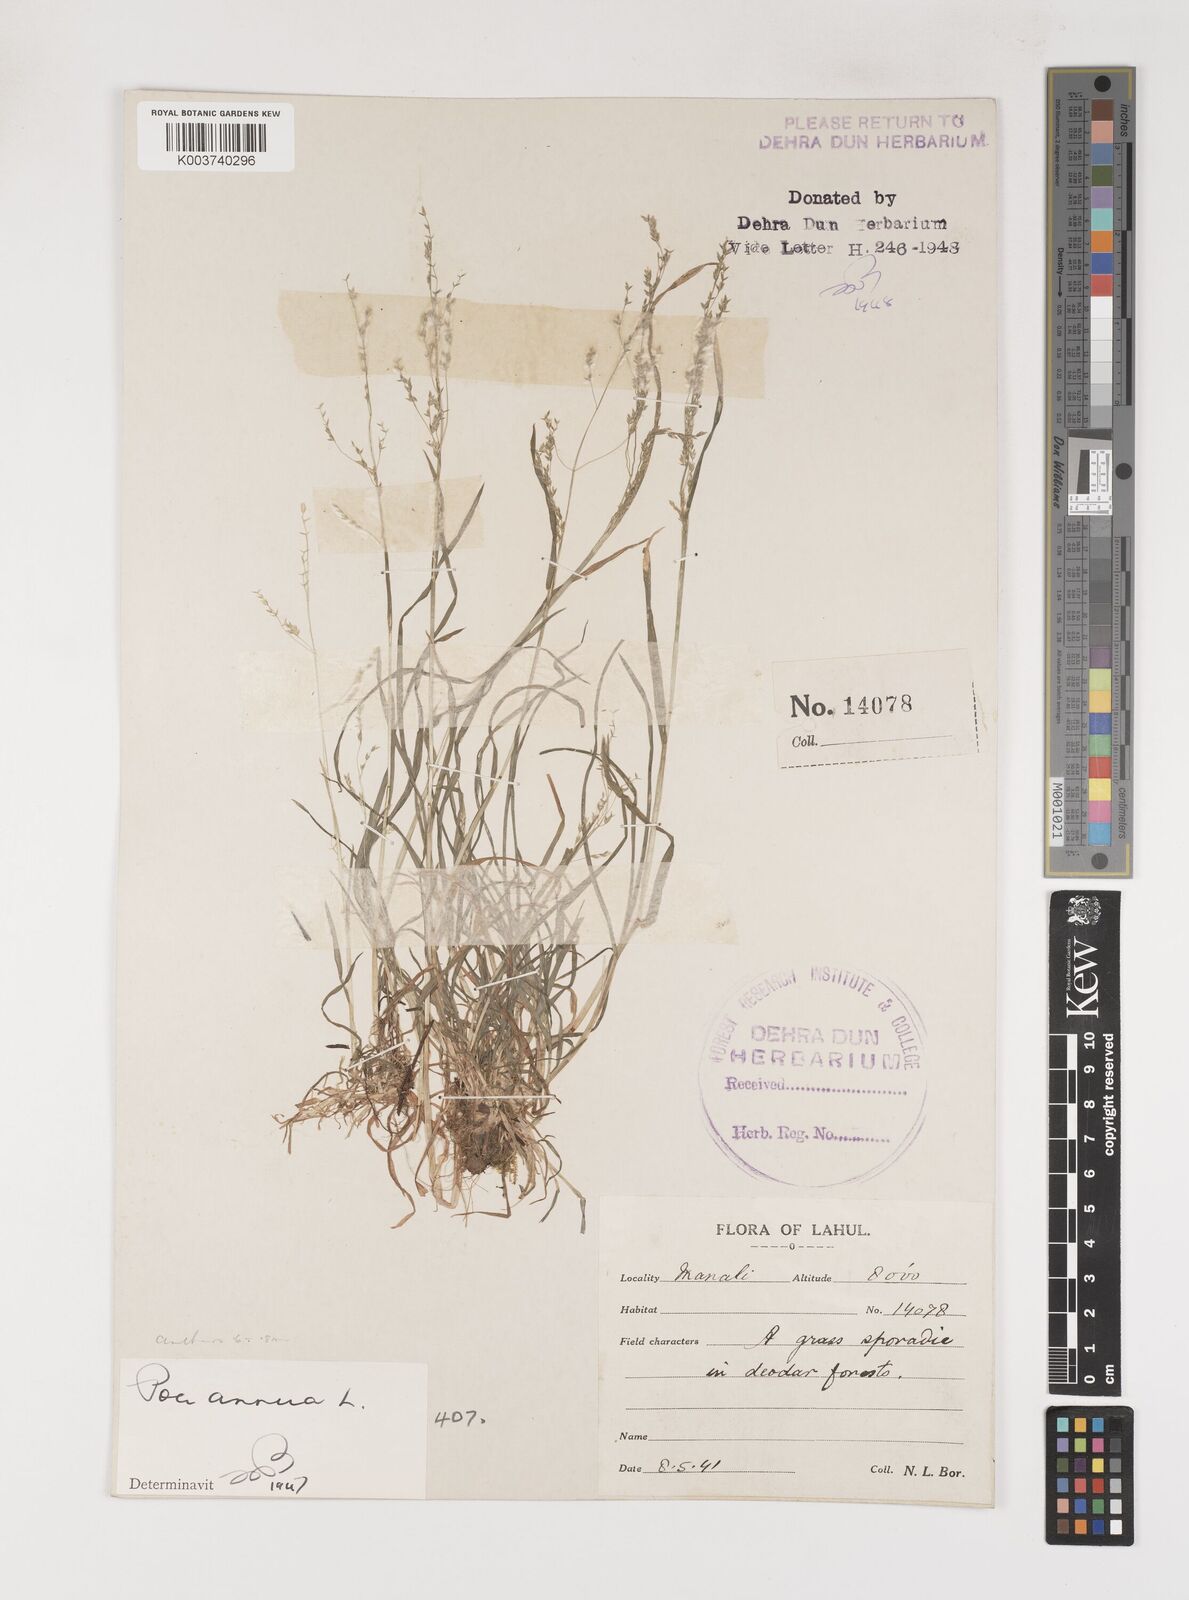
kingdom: Plantae
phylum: Tracheophyta
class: Liliopsida
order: Poales
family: Poaceae
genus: Poa
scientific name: Poa annua
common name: Annual bluegrass
